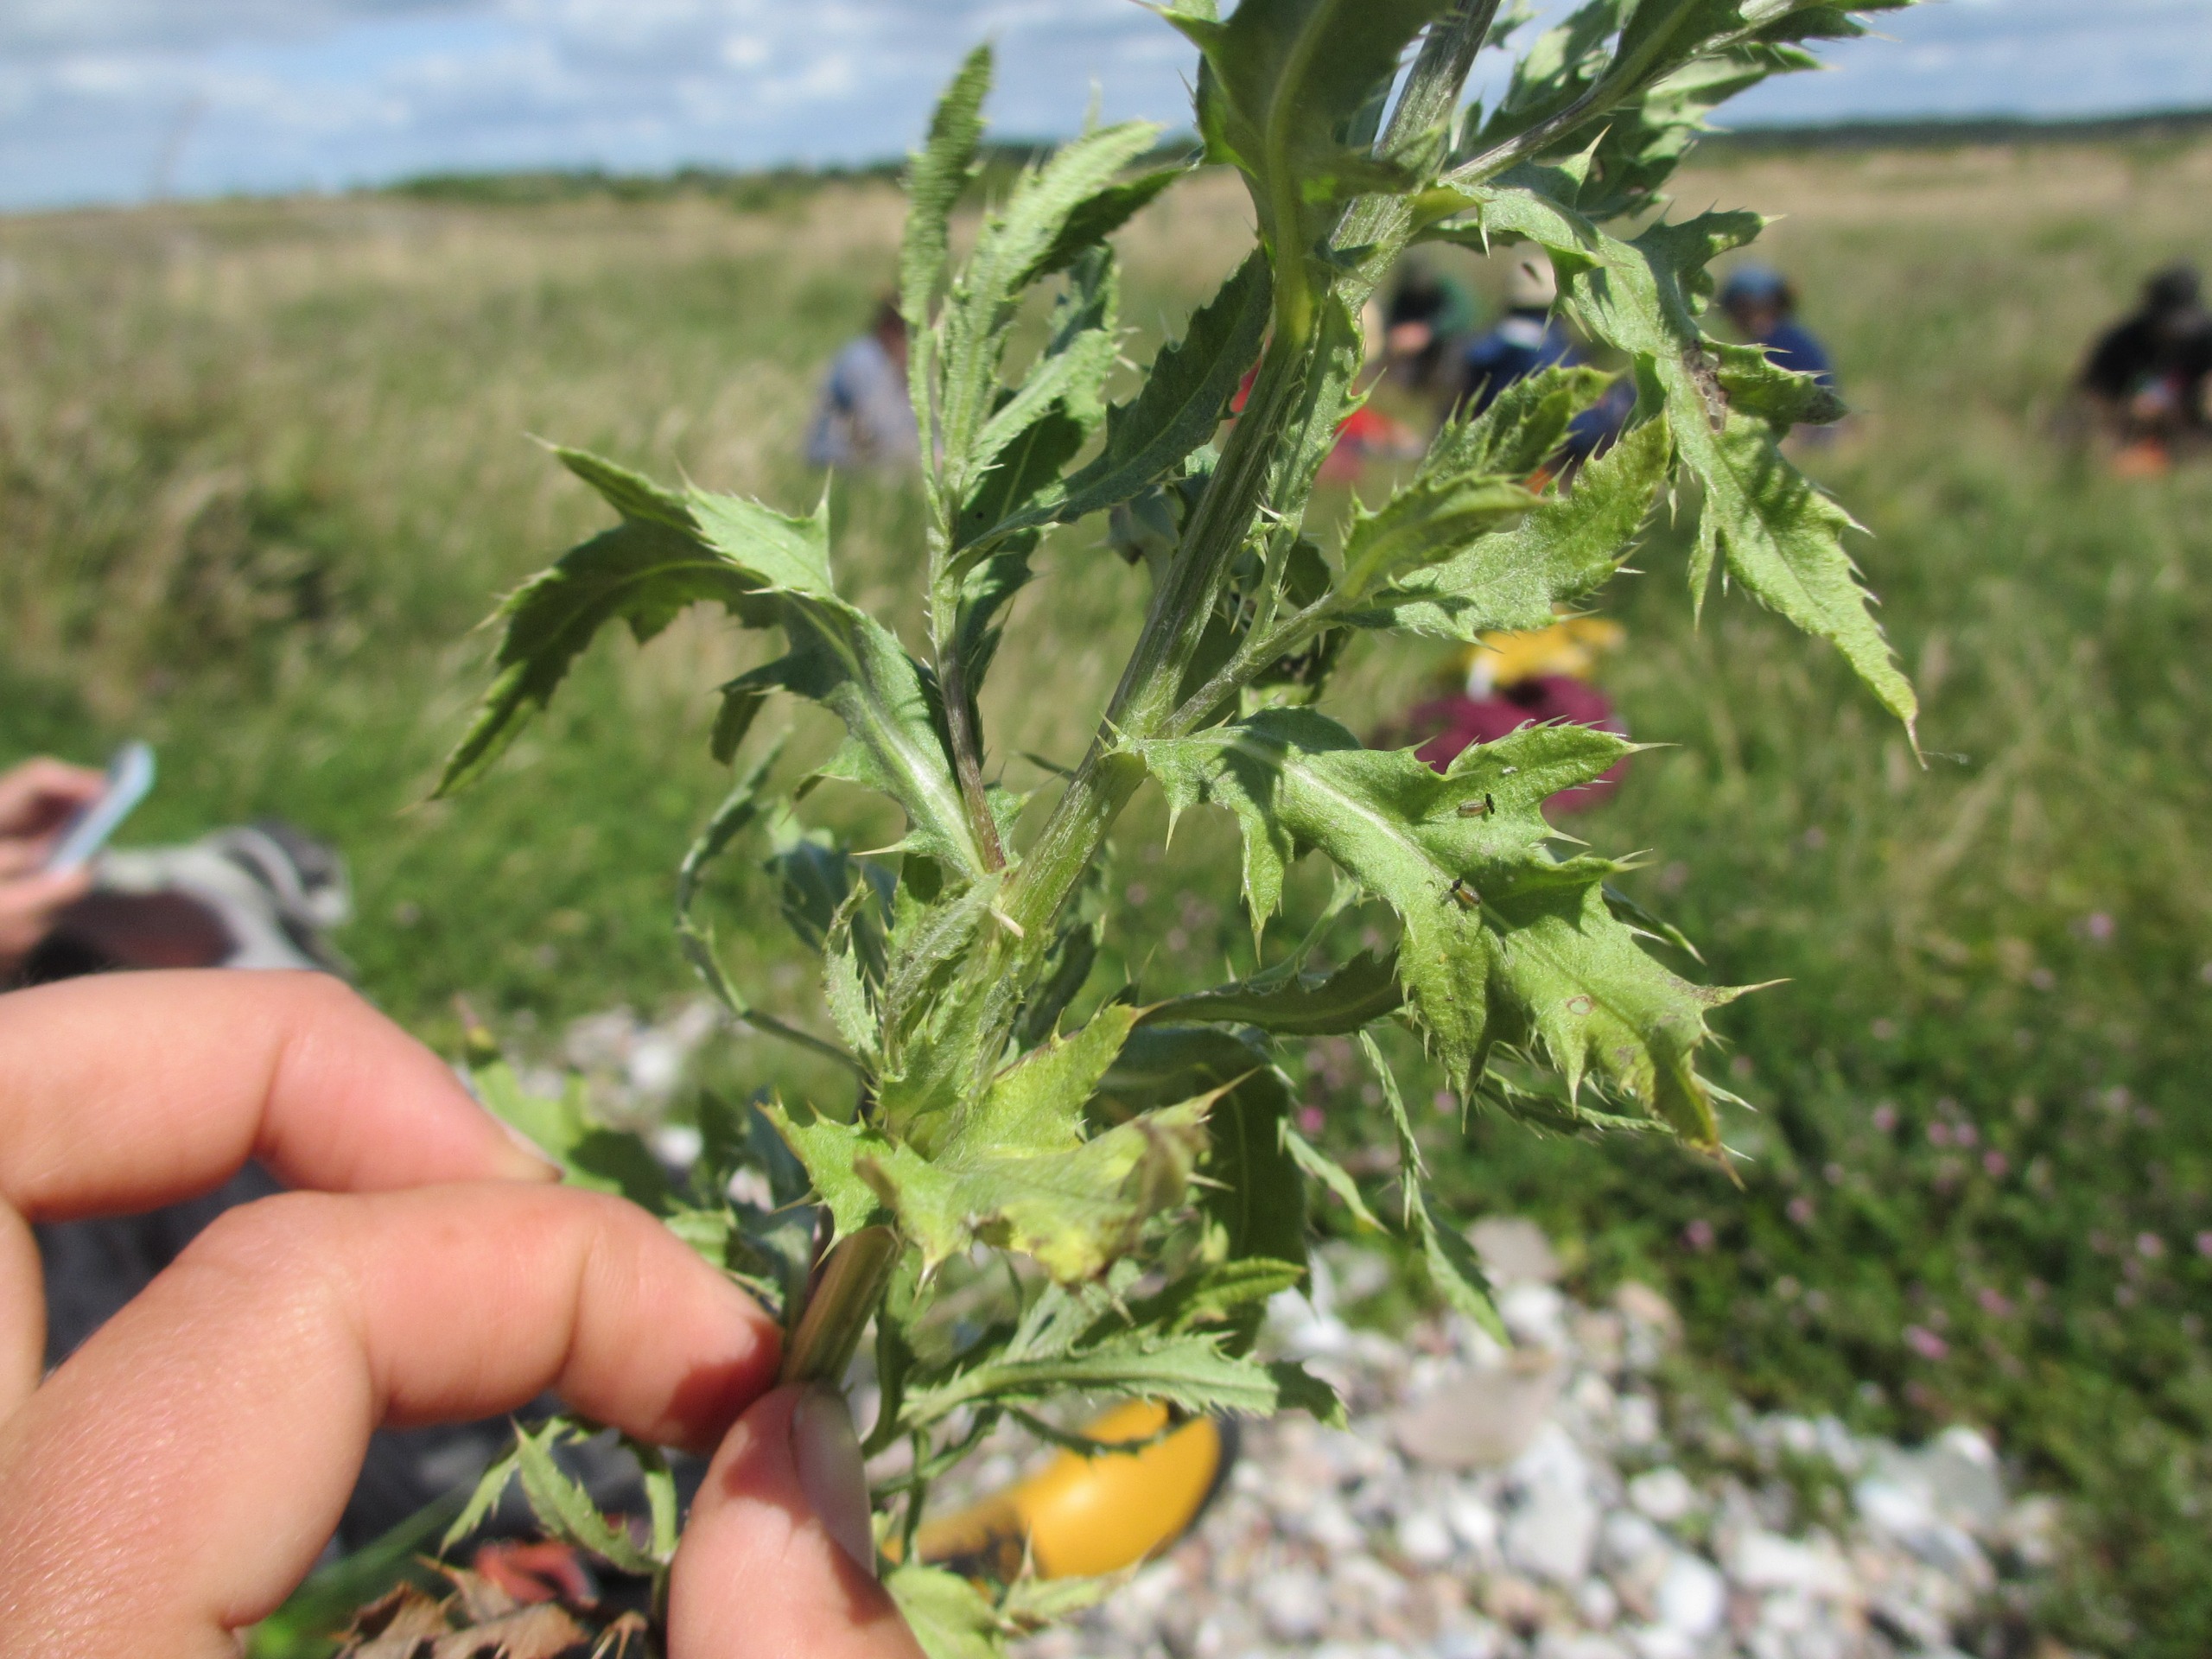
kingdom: Plantae
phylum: Tracheophyta
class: Magnoliopsida
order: Asterales
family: Asteraceae
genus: Cirsium
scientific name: Cirsium arvense
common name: Ager-tidsel
